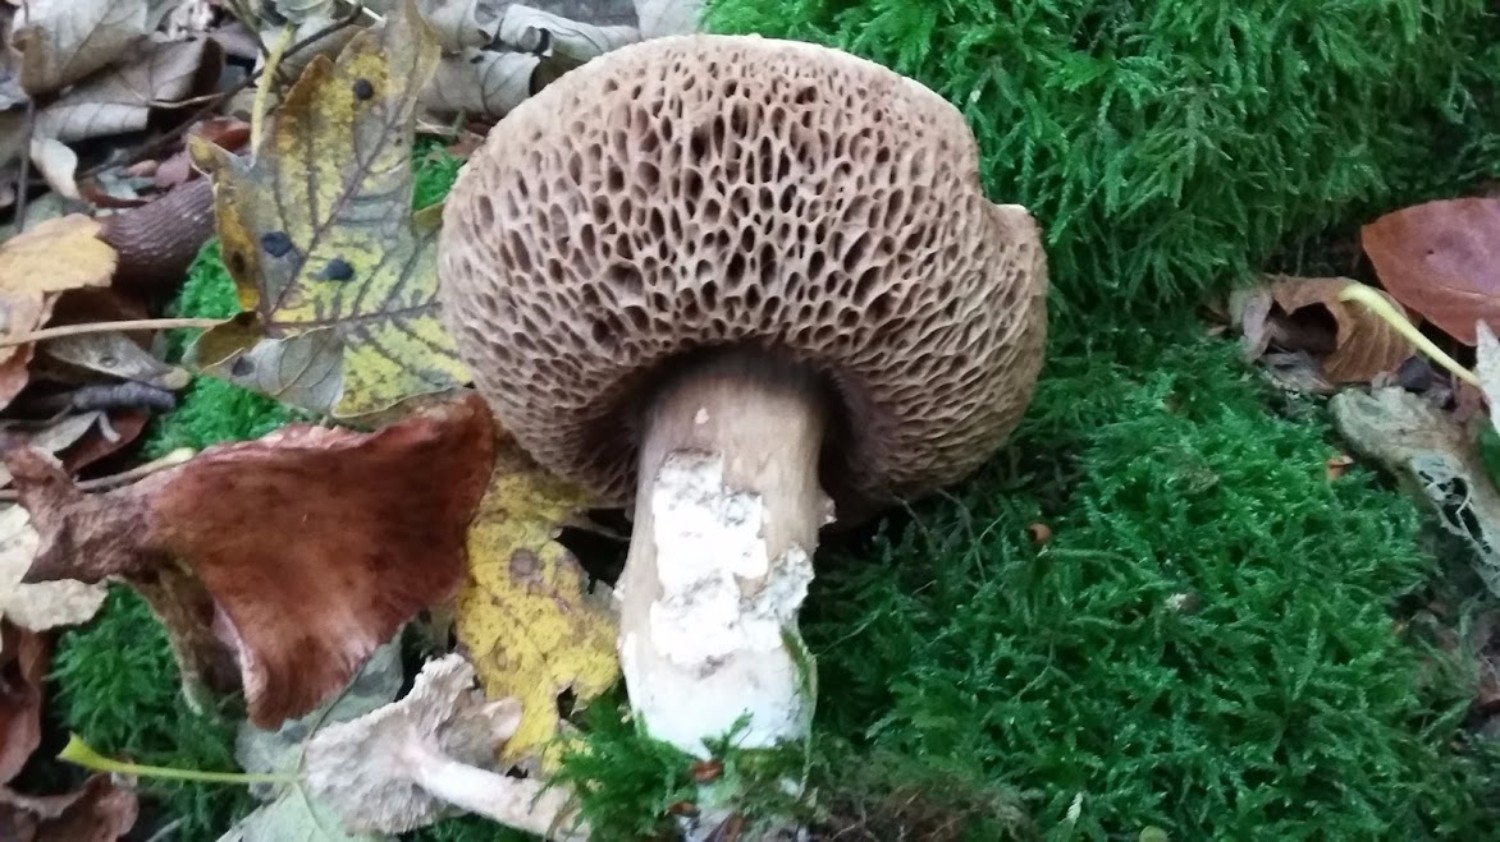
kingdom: Fungi
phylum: Basidiomycota
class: Agaricomycetes
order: Boletales
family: Boletaceae
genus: Porphyrellus
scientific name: Porphyrellus porphyrosporus
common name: sodrørhat
